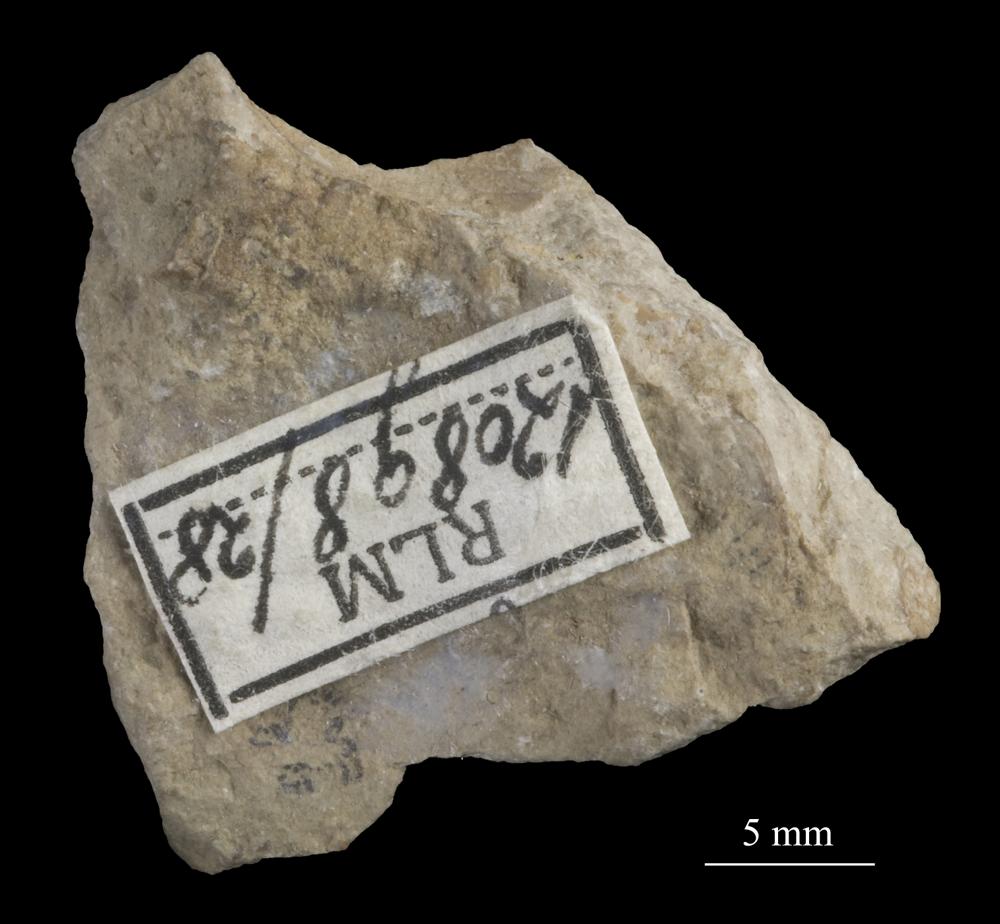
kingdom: Animalia
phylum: Mollusca
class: Gastropoda
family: Bucaniidae
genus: Kokenospira
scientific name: Kokenospira Bucaniella lateralis
